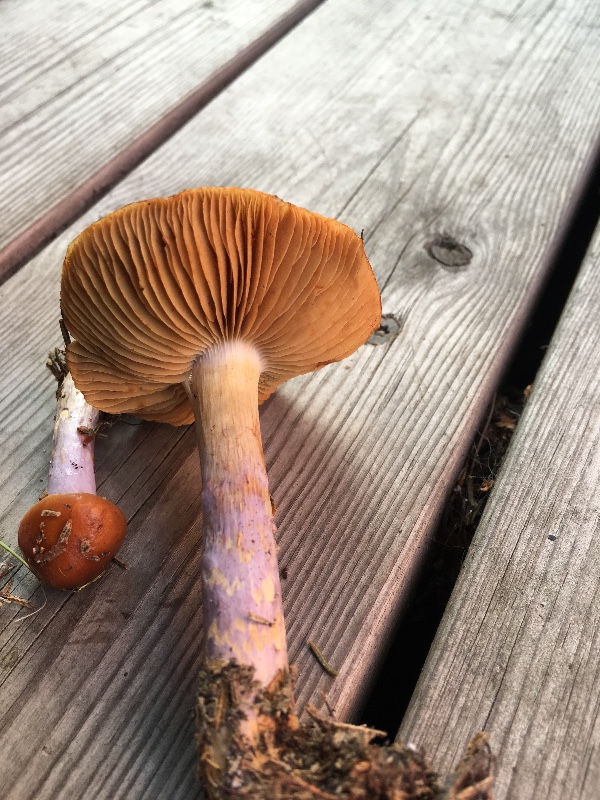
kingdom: Fungi
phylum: Basidiomycota
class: Agaricomycetes
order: Agaricales
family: Cortinariaceae
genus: Cortinarius
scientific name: Cortinarius collinitus
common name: spættet slørhat
